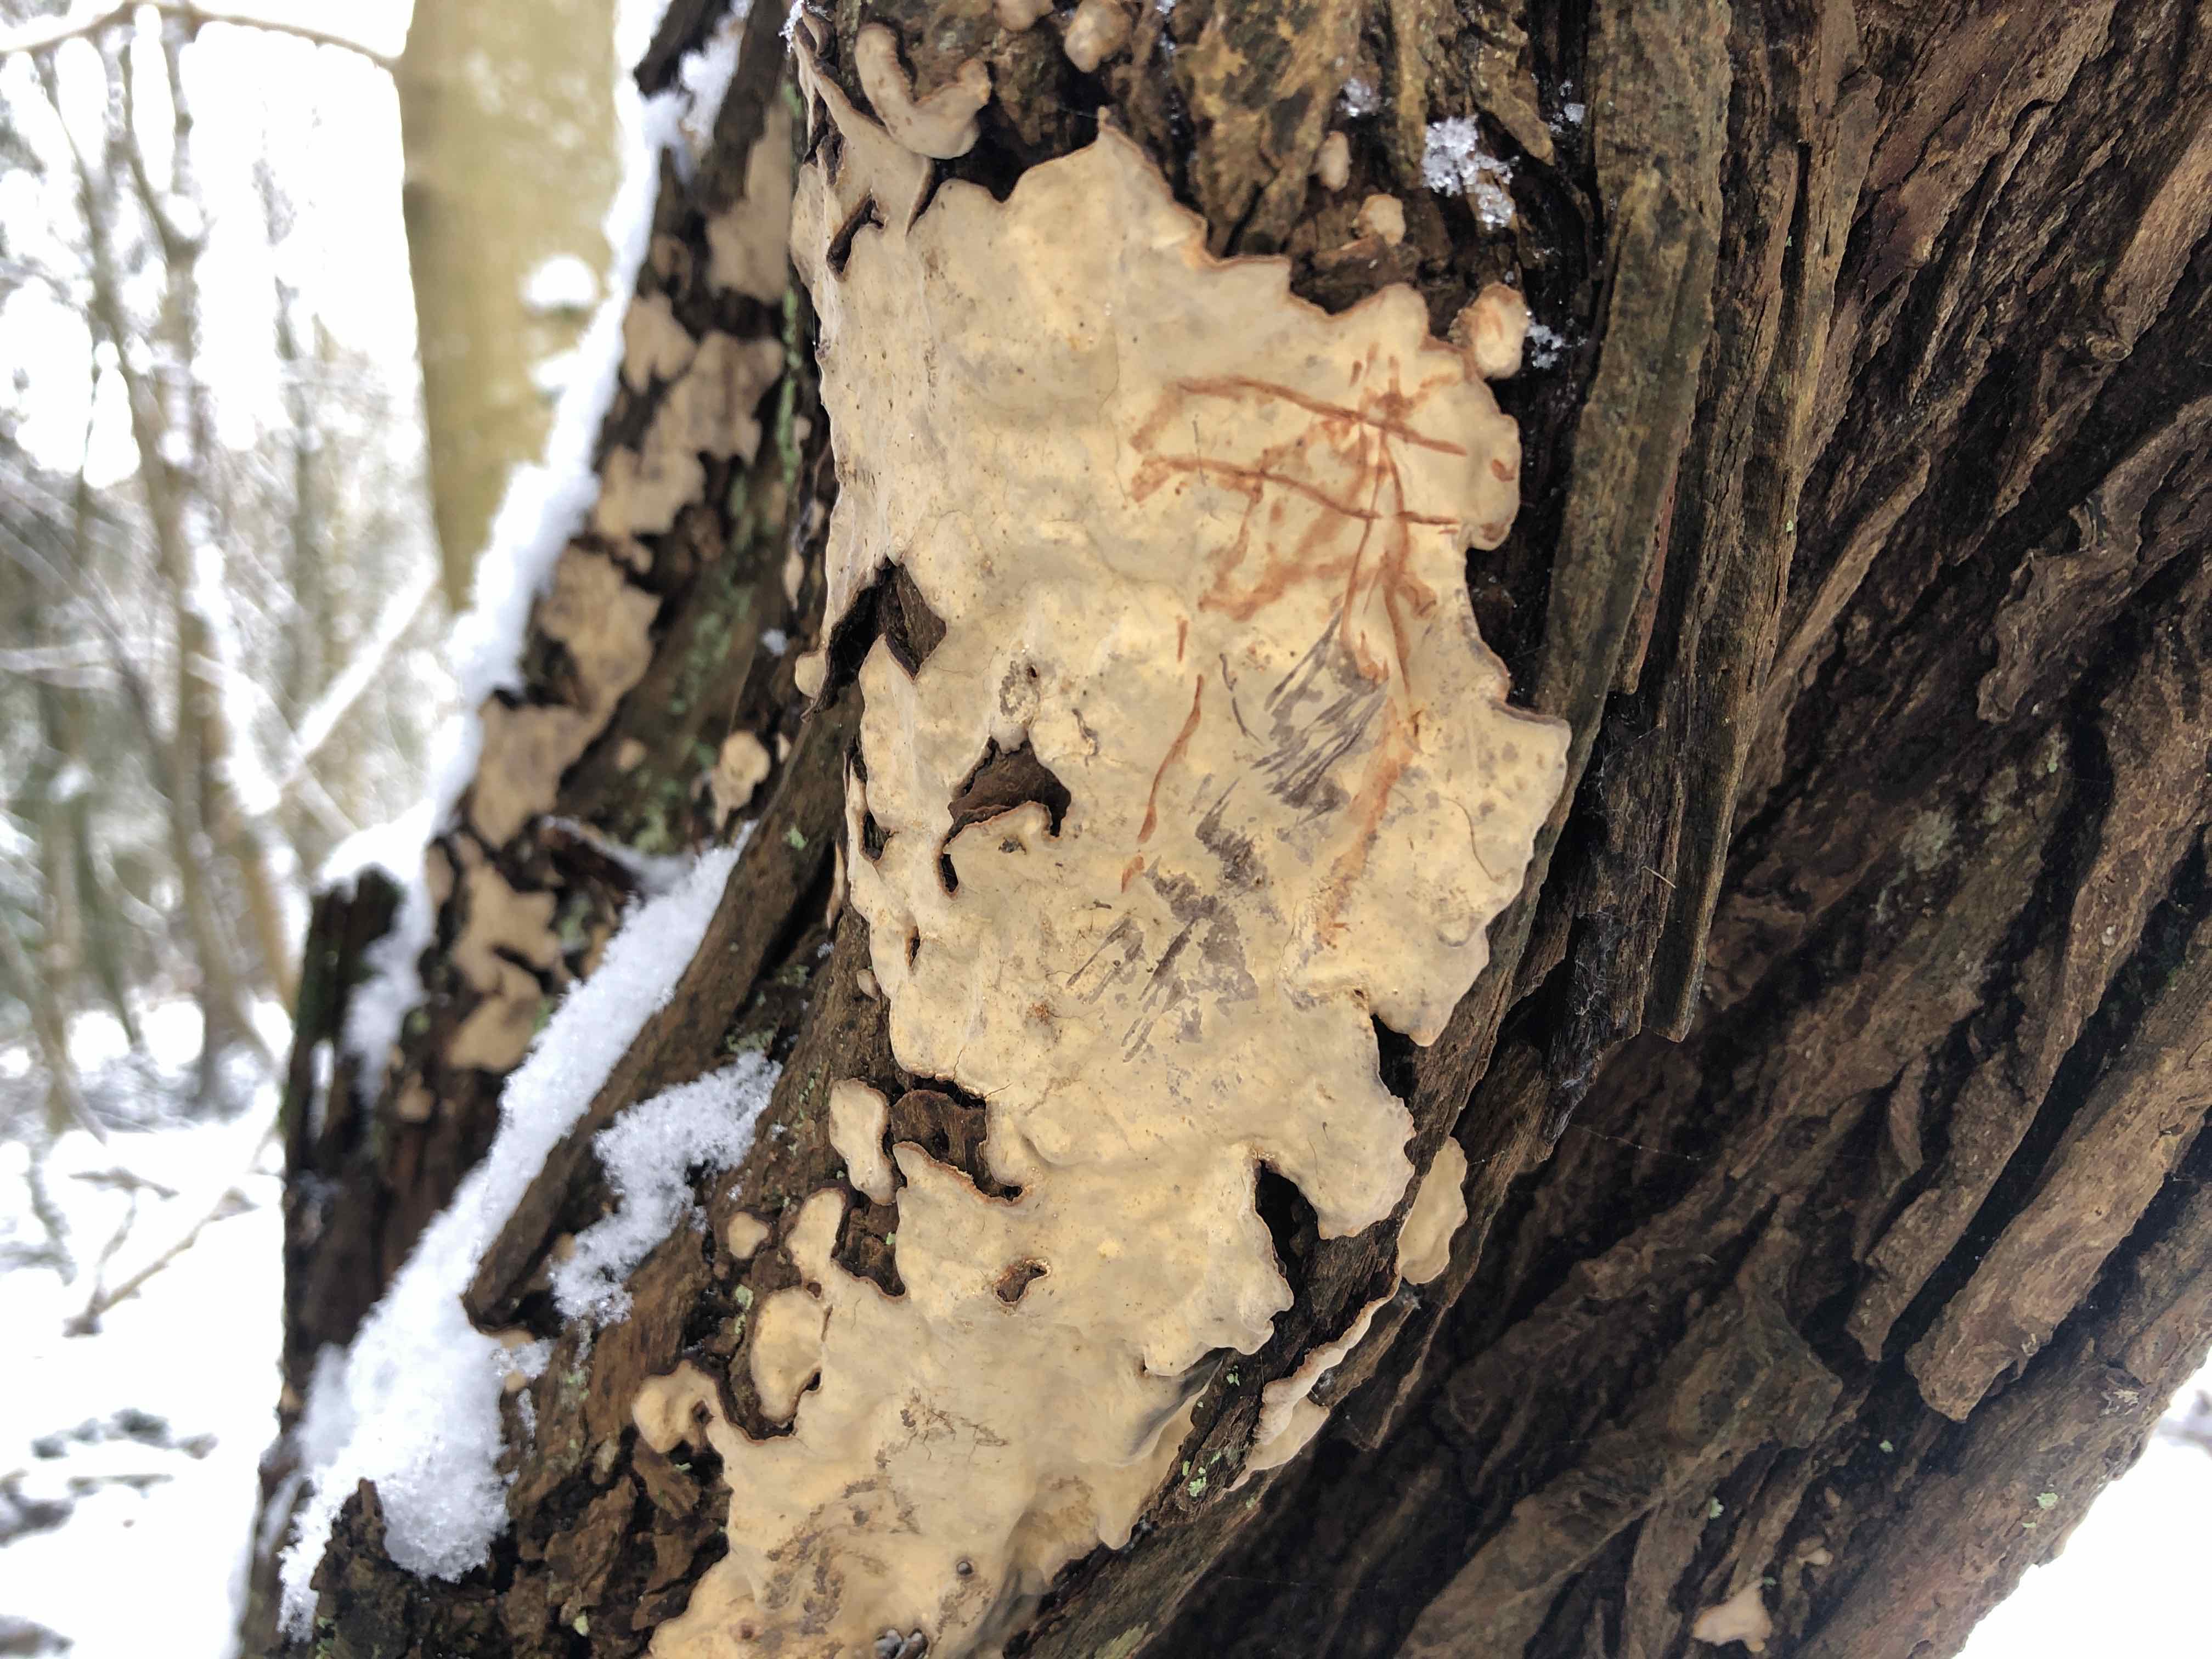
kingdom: Fungi
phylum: Basidiomycota
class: Agaricomycetes
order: Russulales
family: Stereaceae
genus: Stereum
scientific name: Stereum rugosum
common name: rynket lædersvamp
